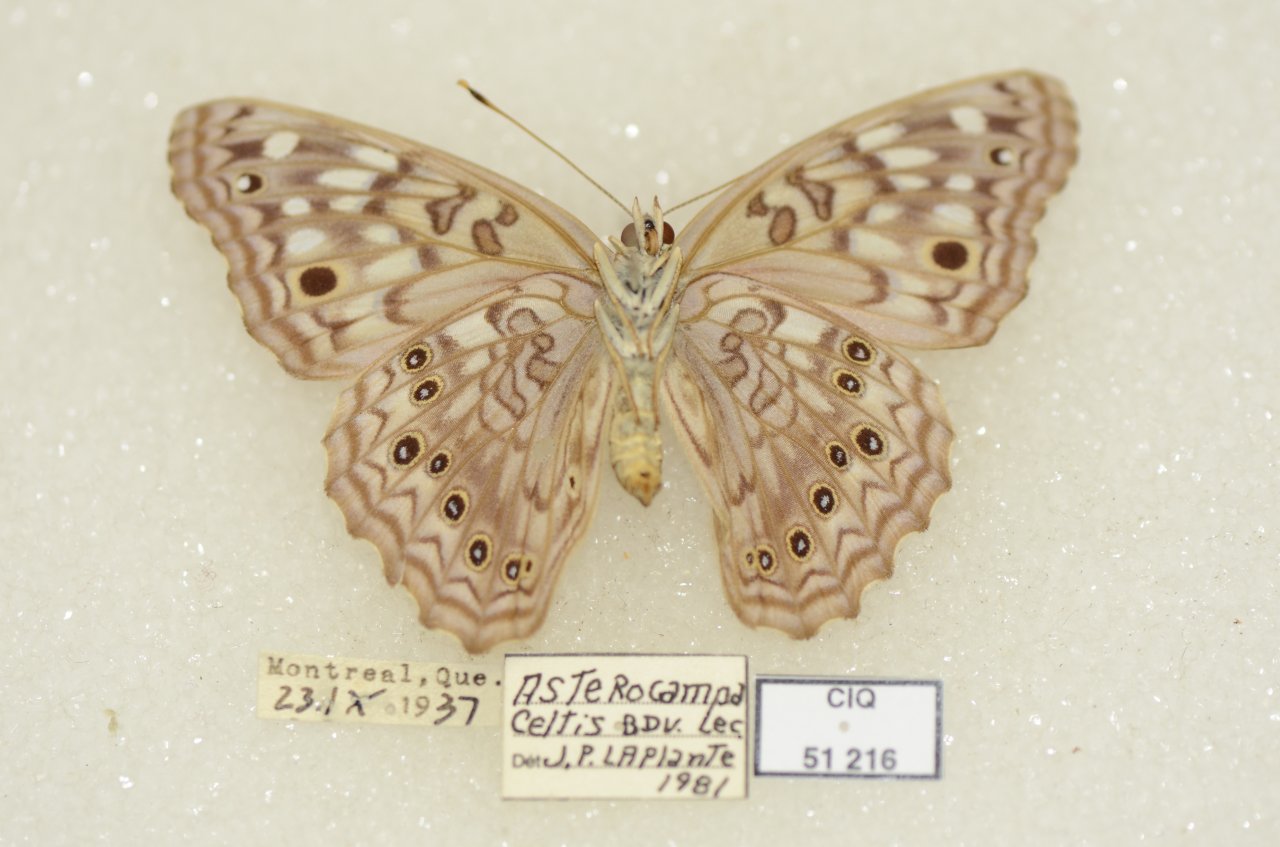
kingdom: Animalia
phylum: Arthropoda
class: Insecta
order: Lepidoptera
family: Nymphalidae
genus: Asterocampa
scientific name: Asterocampa celtis
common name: Hackberry Emperor
